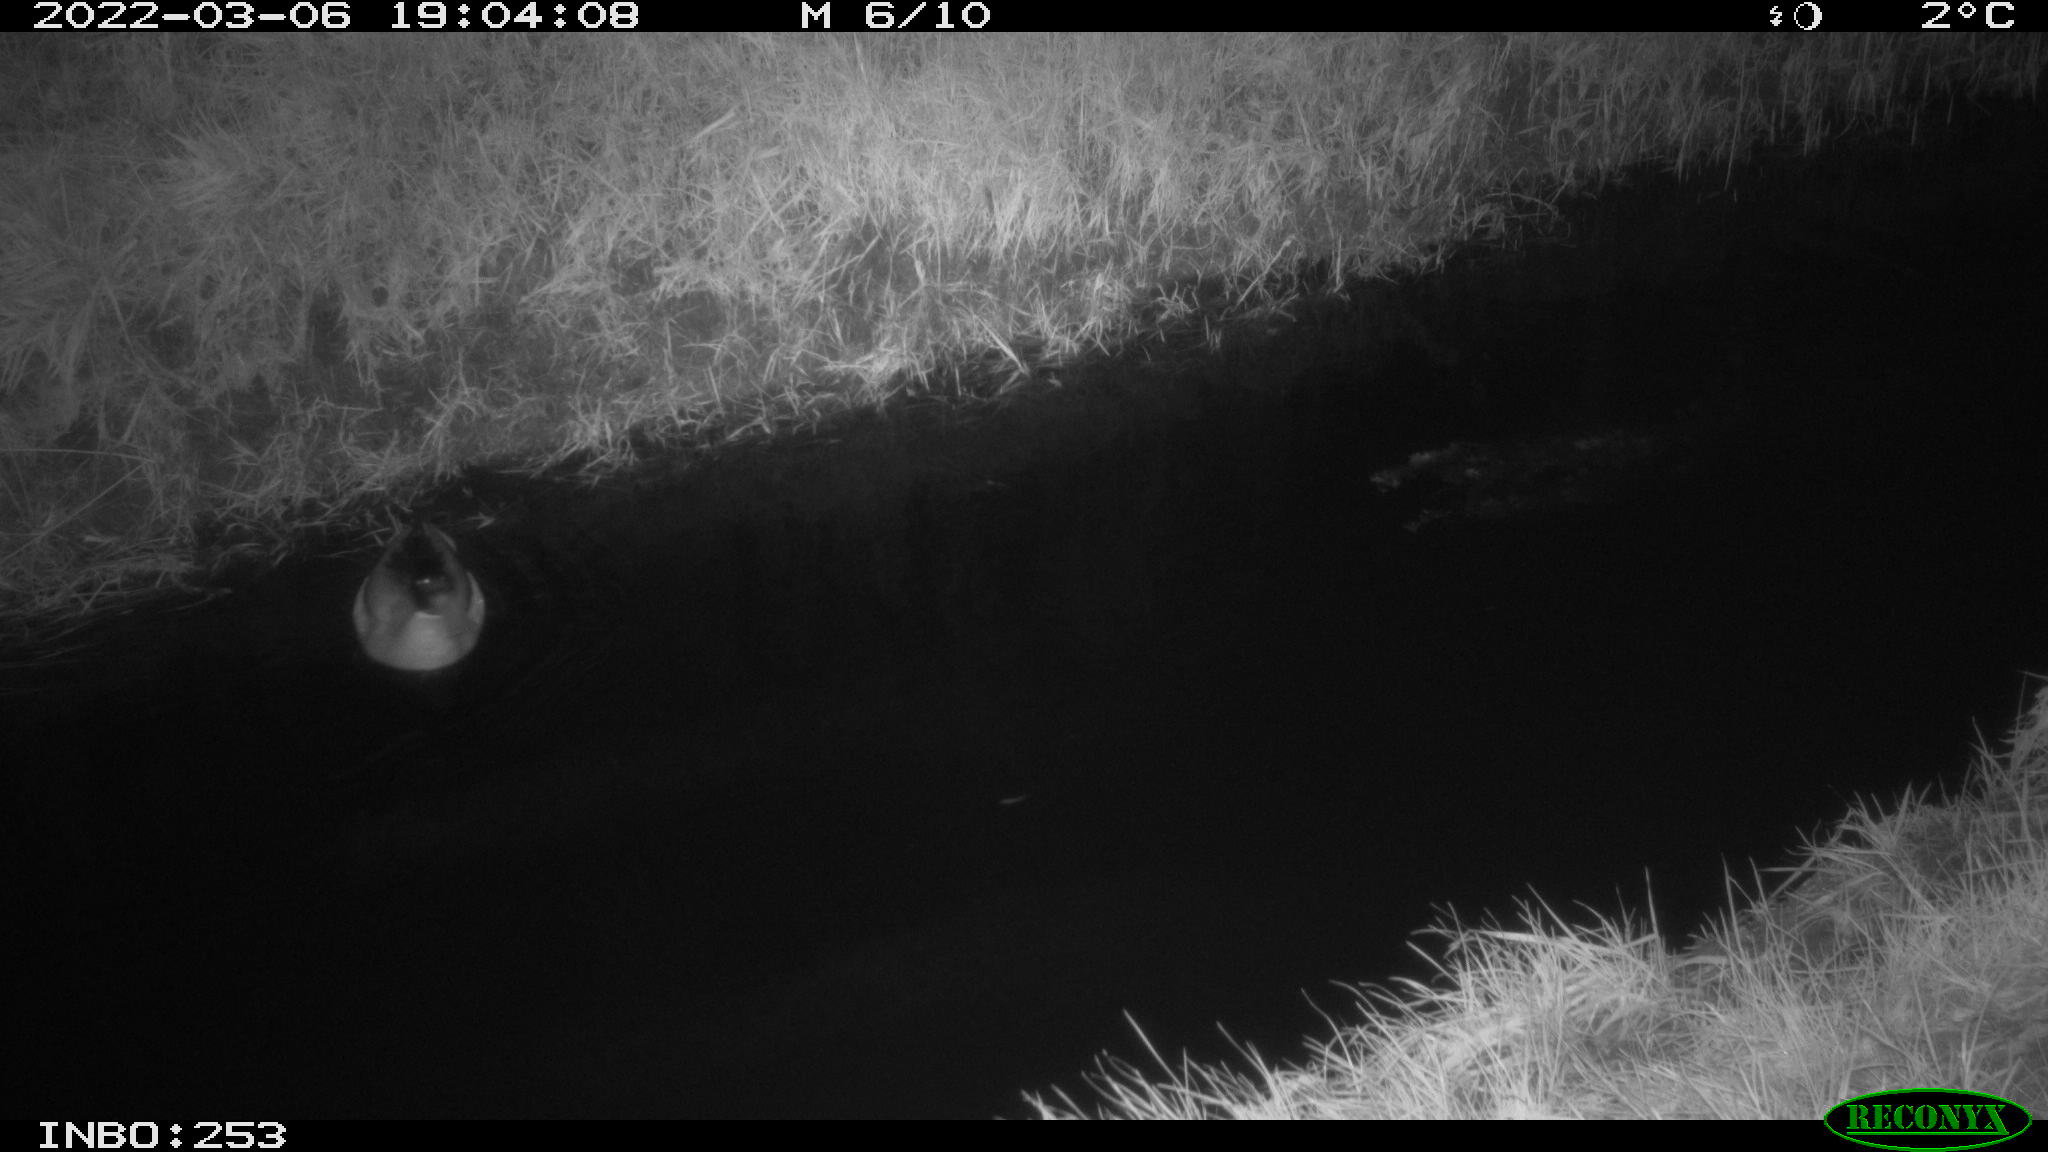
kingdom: Animalia
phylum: Chordata
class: Aves
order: Anseriformes
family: Anatidae
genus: Anas
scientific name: Anas platyrhynchos
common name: Mallard
